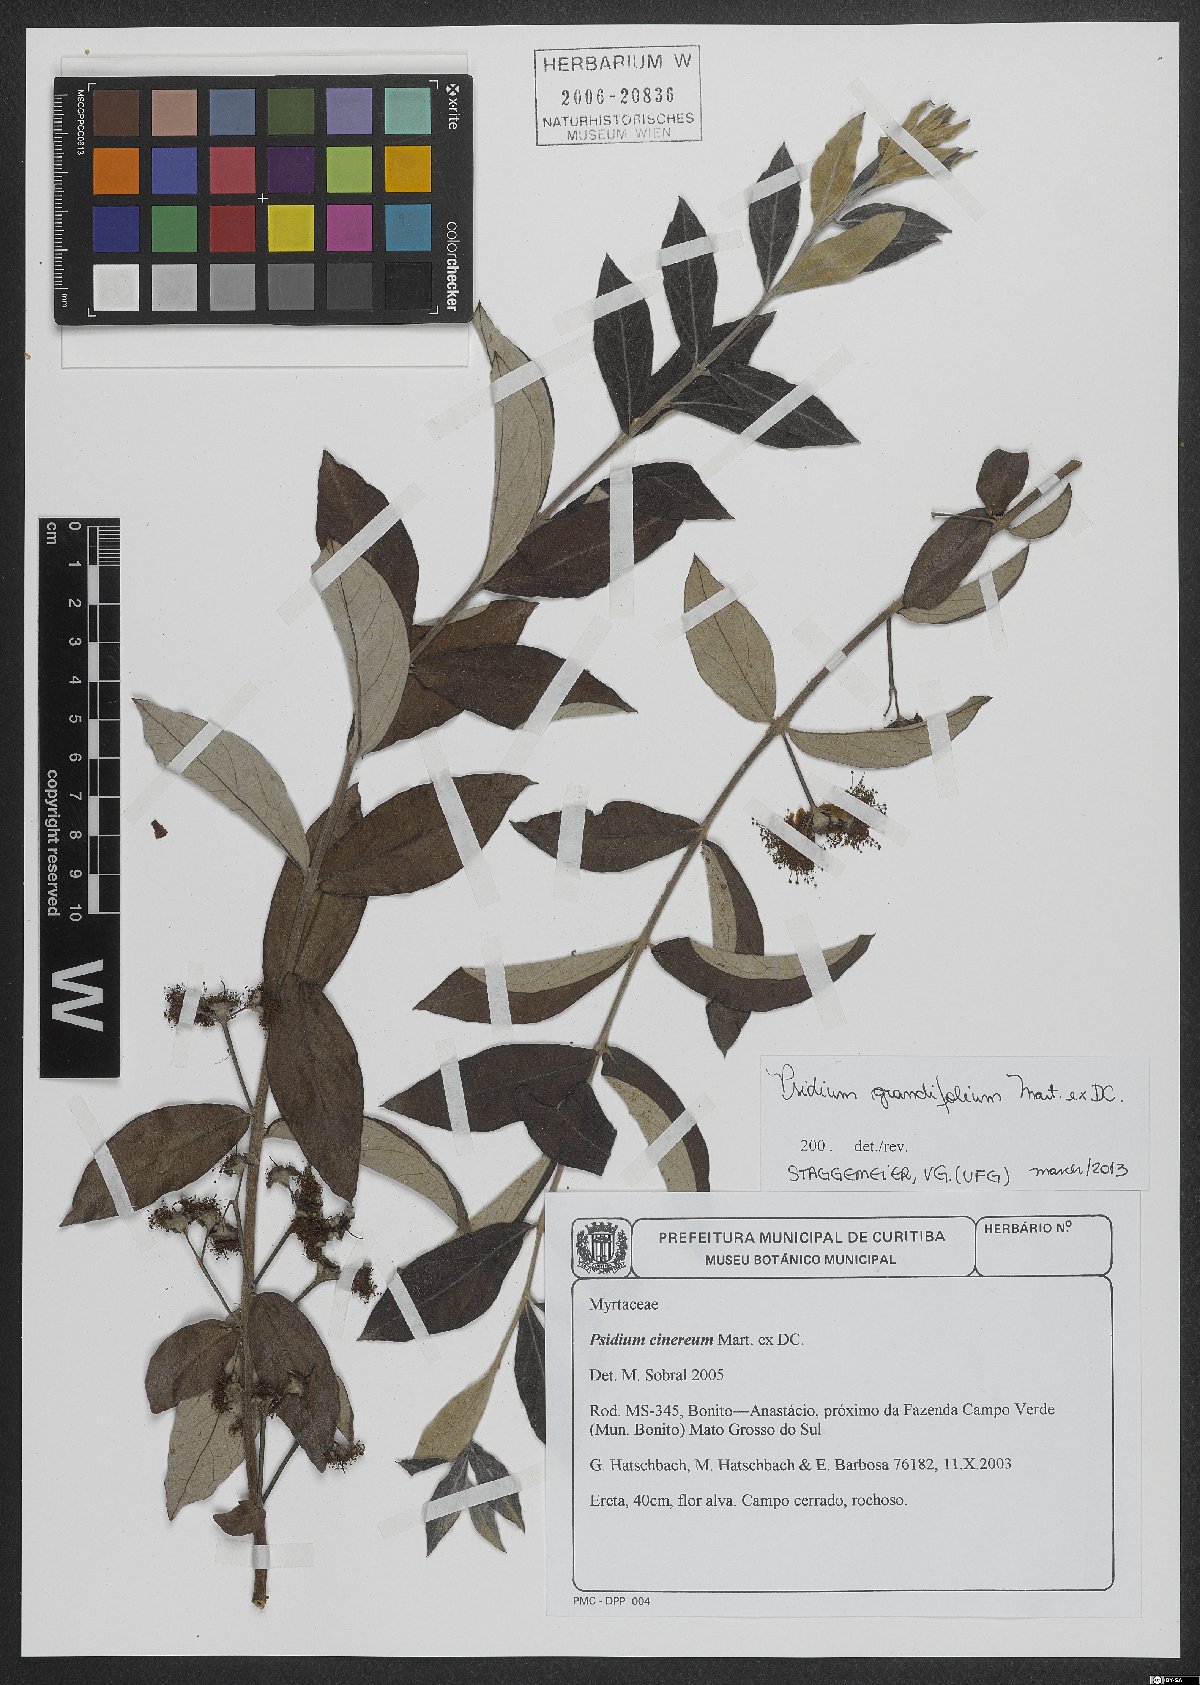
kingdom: Plantae
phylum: Tracheophyta
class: Magnoliopsida
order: Myrtales
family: Myrtaceae
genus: Psidium
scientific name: Psidium grandifolium
